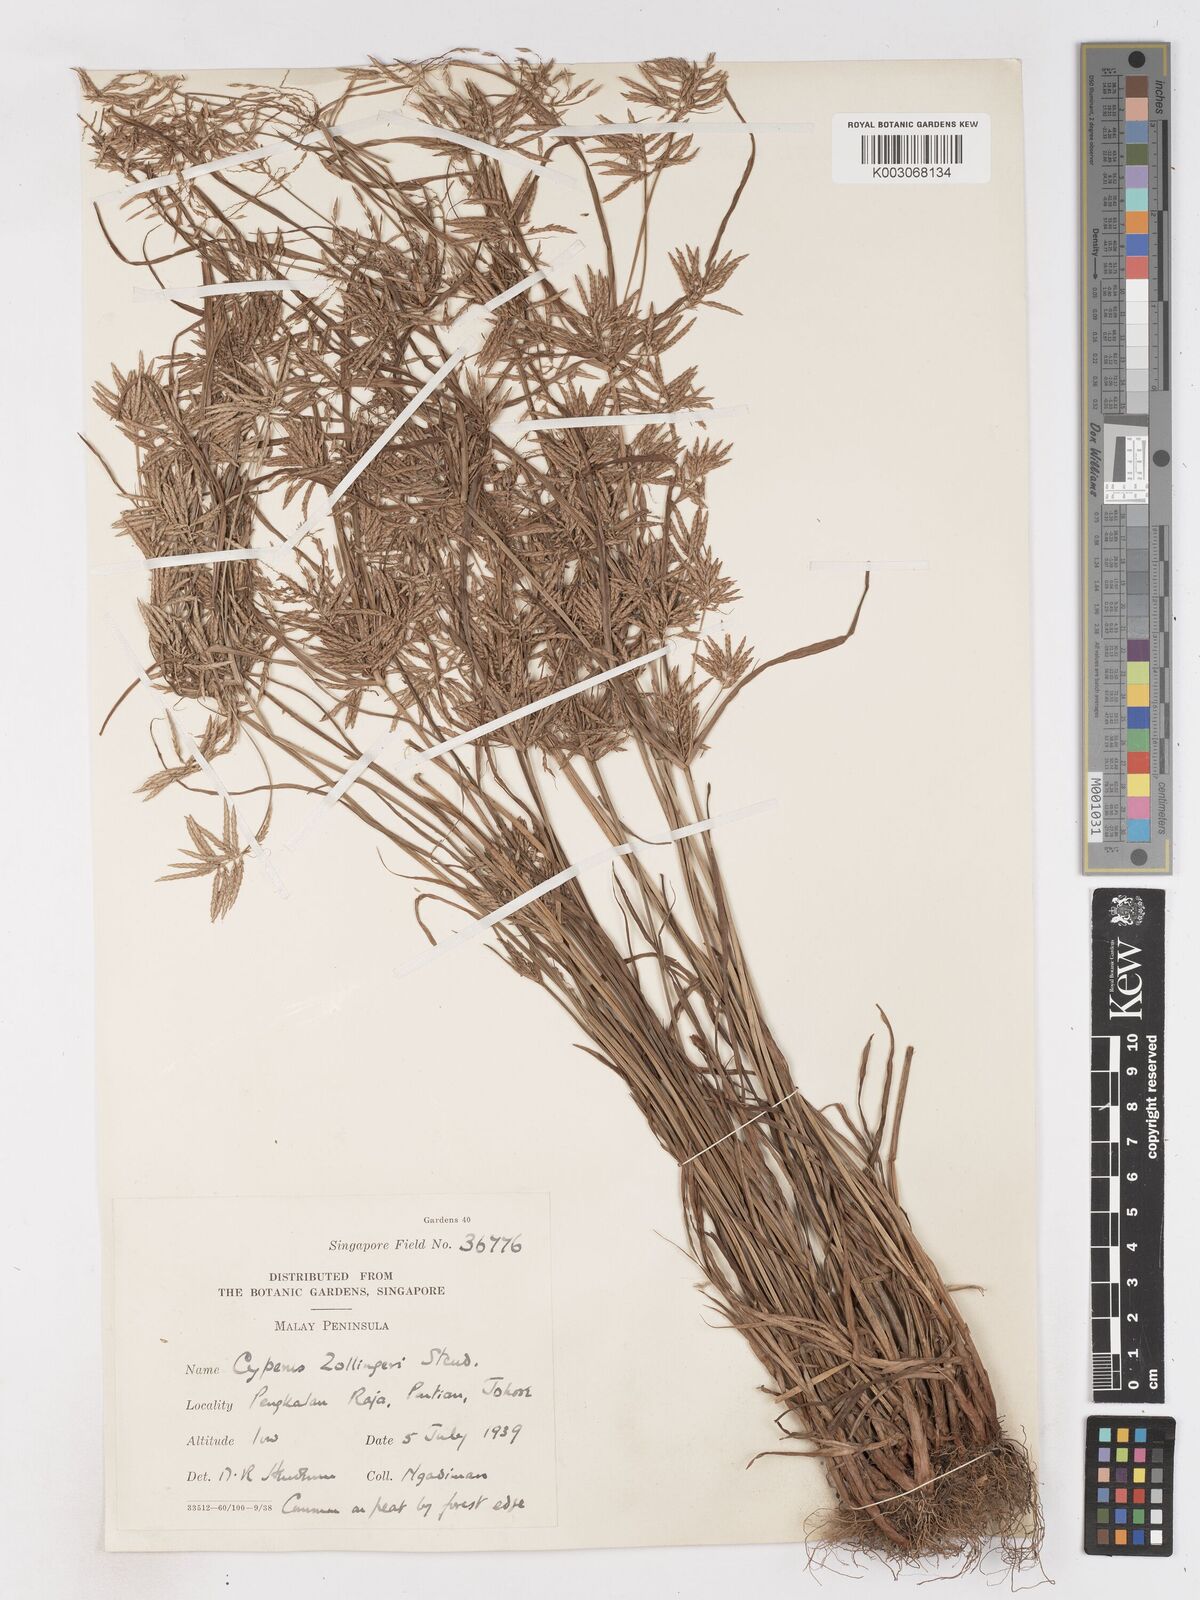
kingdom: Plantae
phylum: Tracheophyta
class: Liliopsida
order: Poales
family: Cyperaceae
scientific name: Cyperaceae
